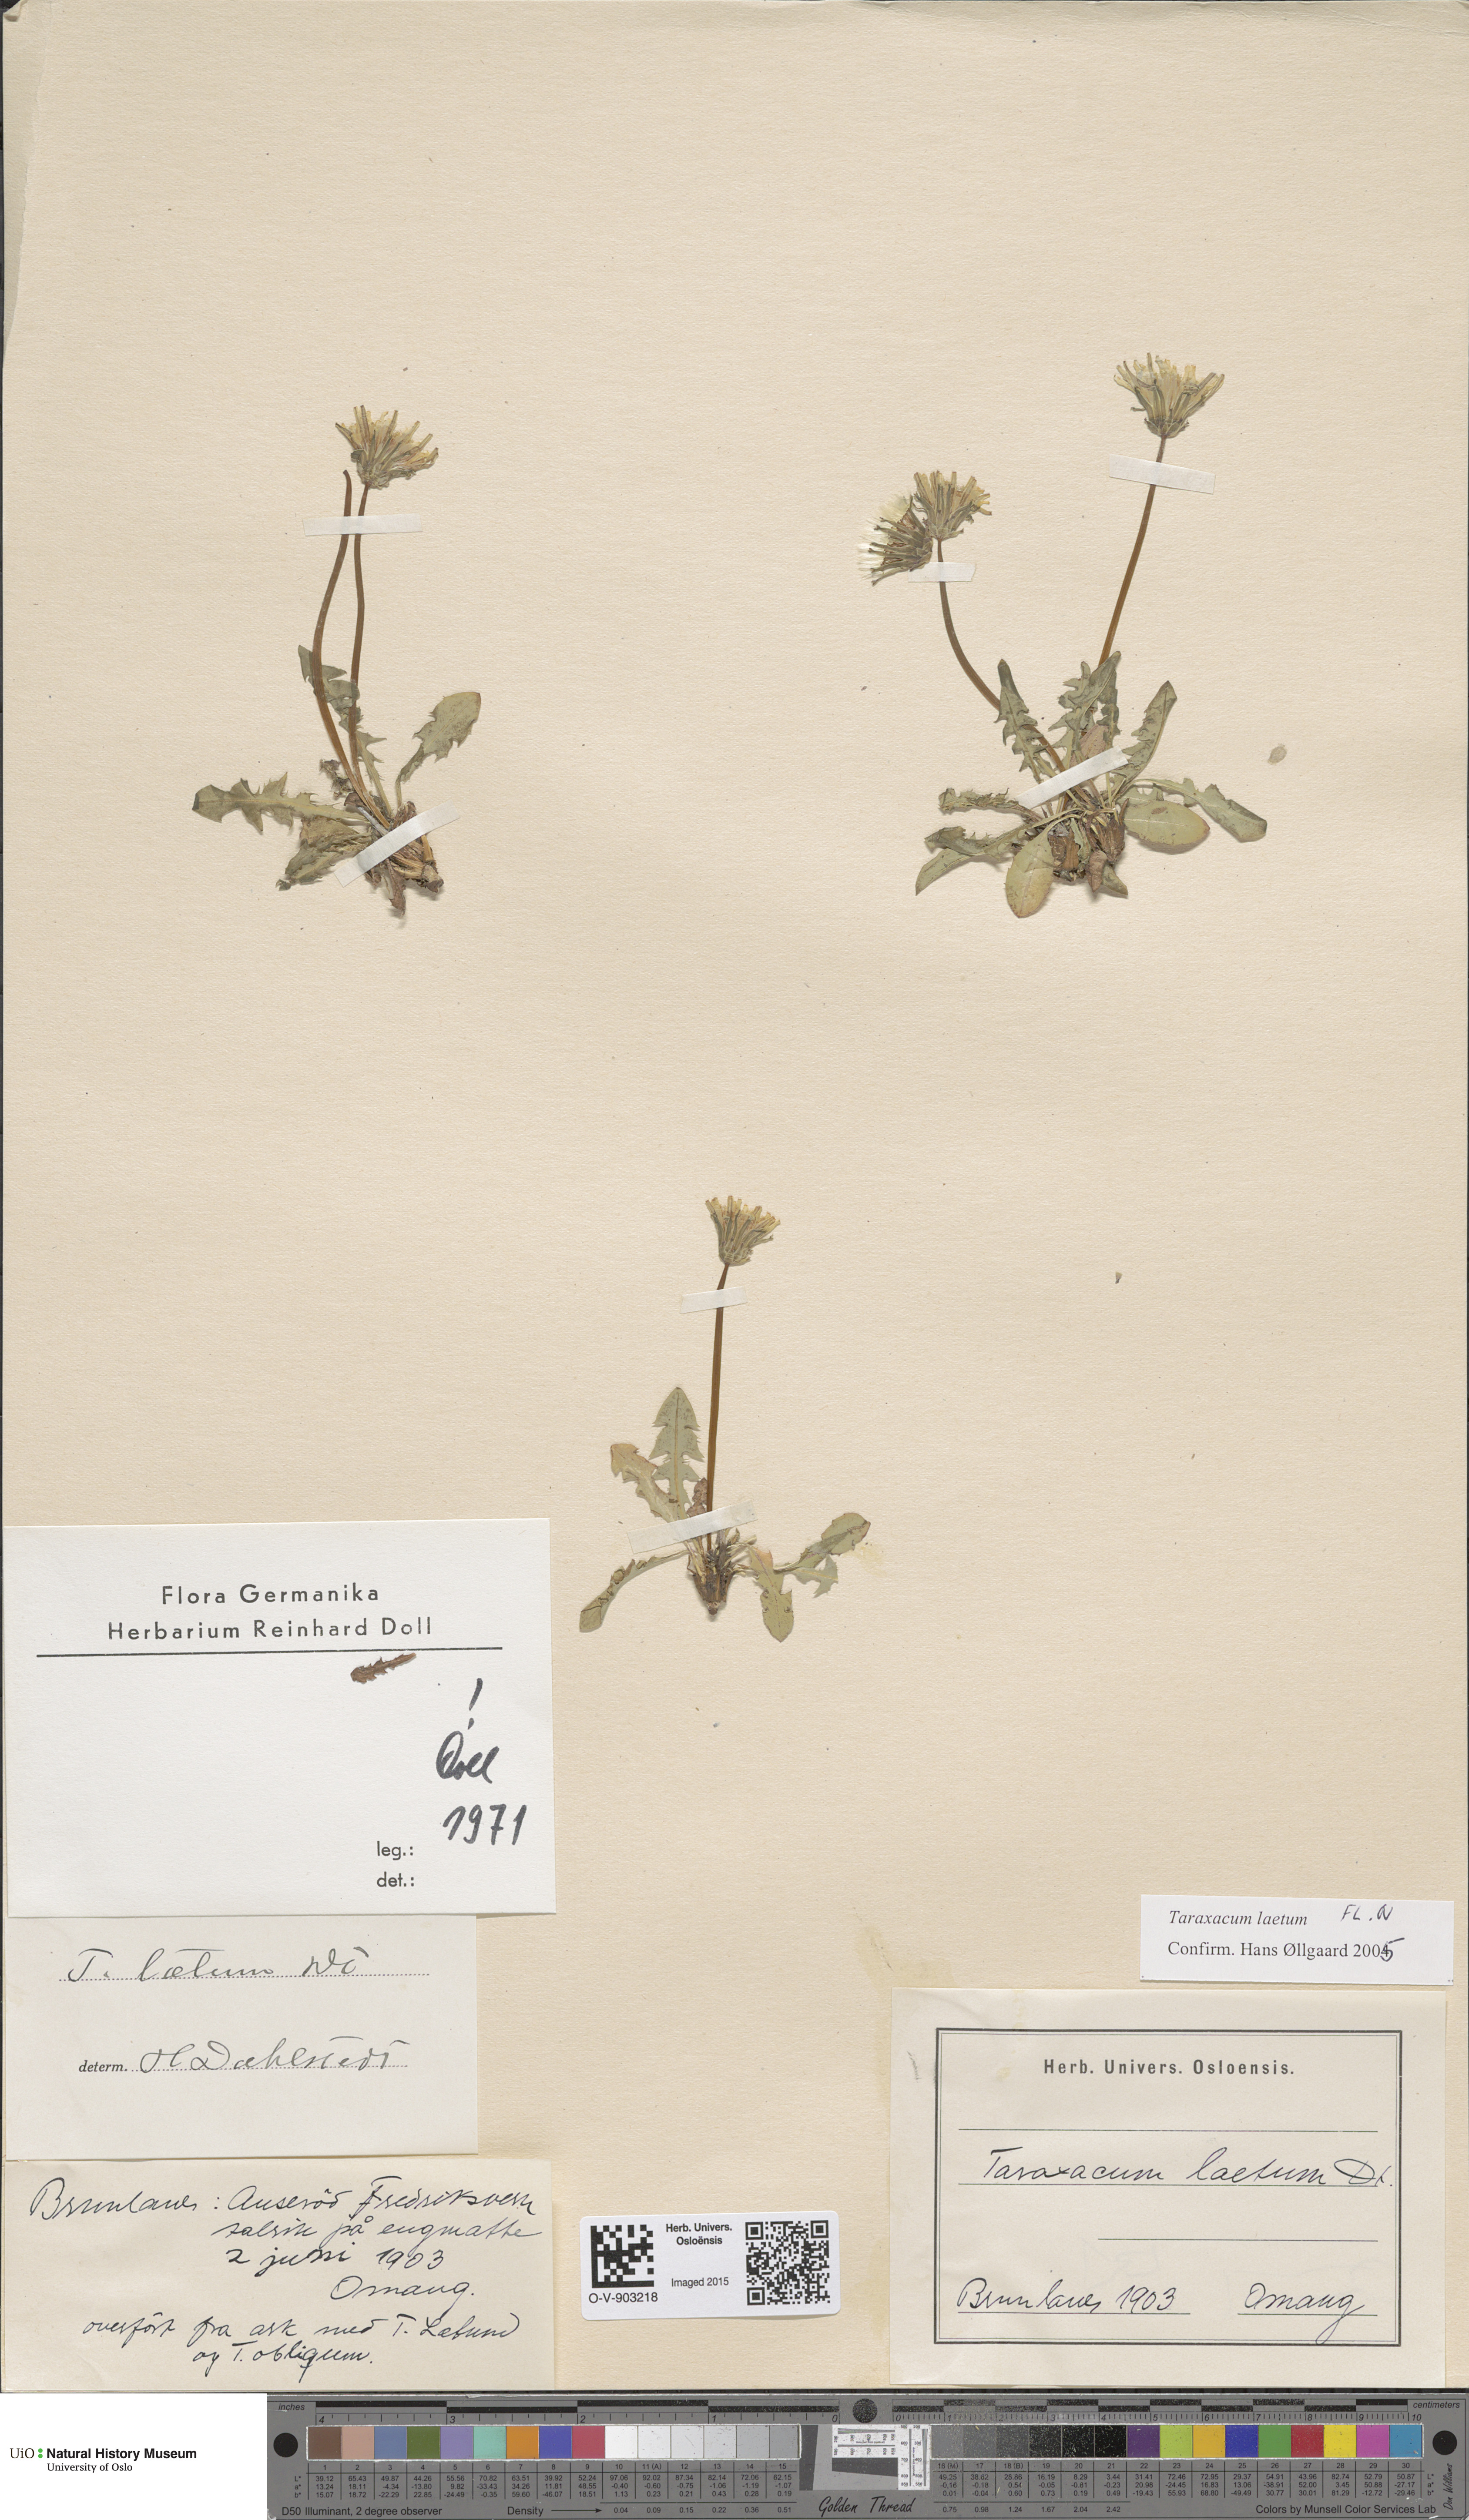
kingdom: Plantae
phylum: Tracheophyta
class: Magnoliopsida
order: Asterales
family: Asteraceae
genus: Taraxacum
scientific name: Taraxacum laetum
